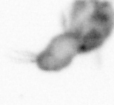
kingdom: Animalia
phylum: Arthropoda
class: Copepoda
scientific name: Copepoda
